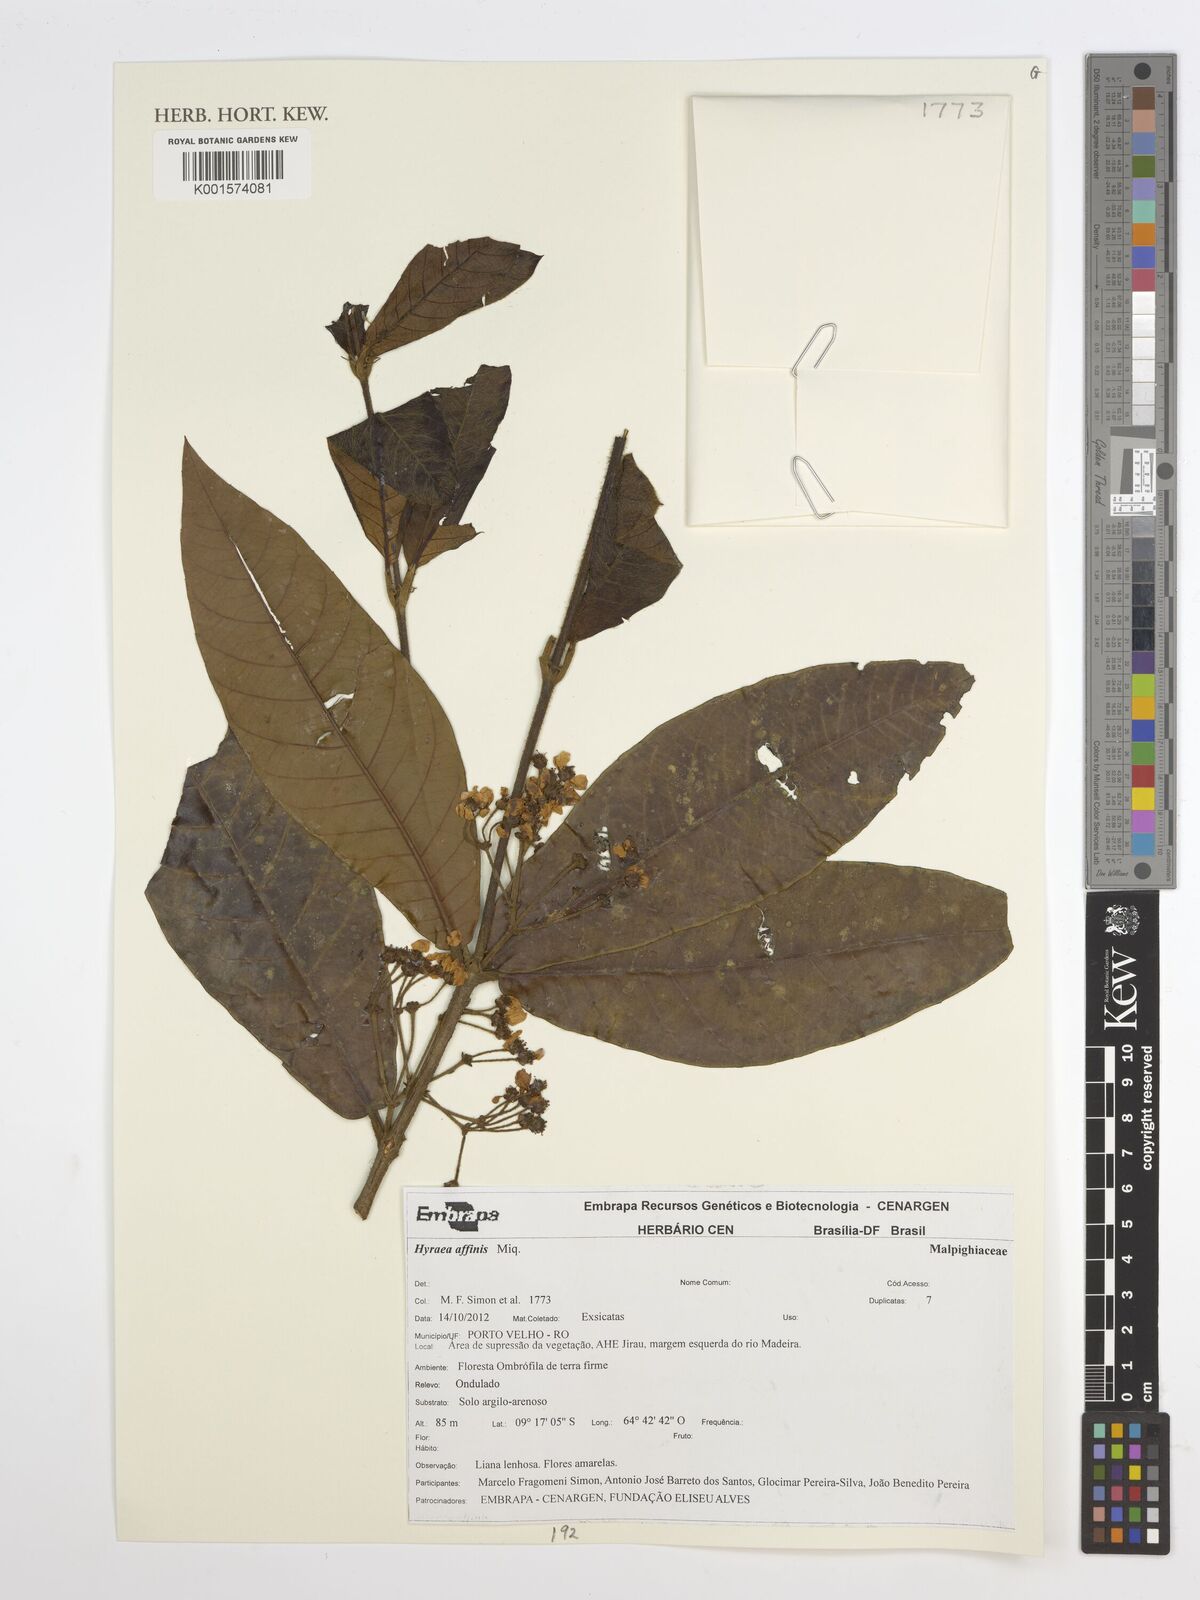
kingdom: Plantae
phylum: Tracheophyta
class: Magnoliopsida
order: Malpighiales
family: Malpighiaceae
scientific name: Malpighiaceae
